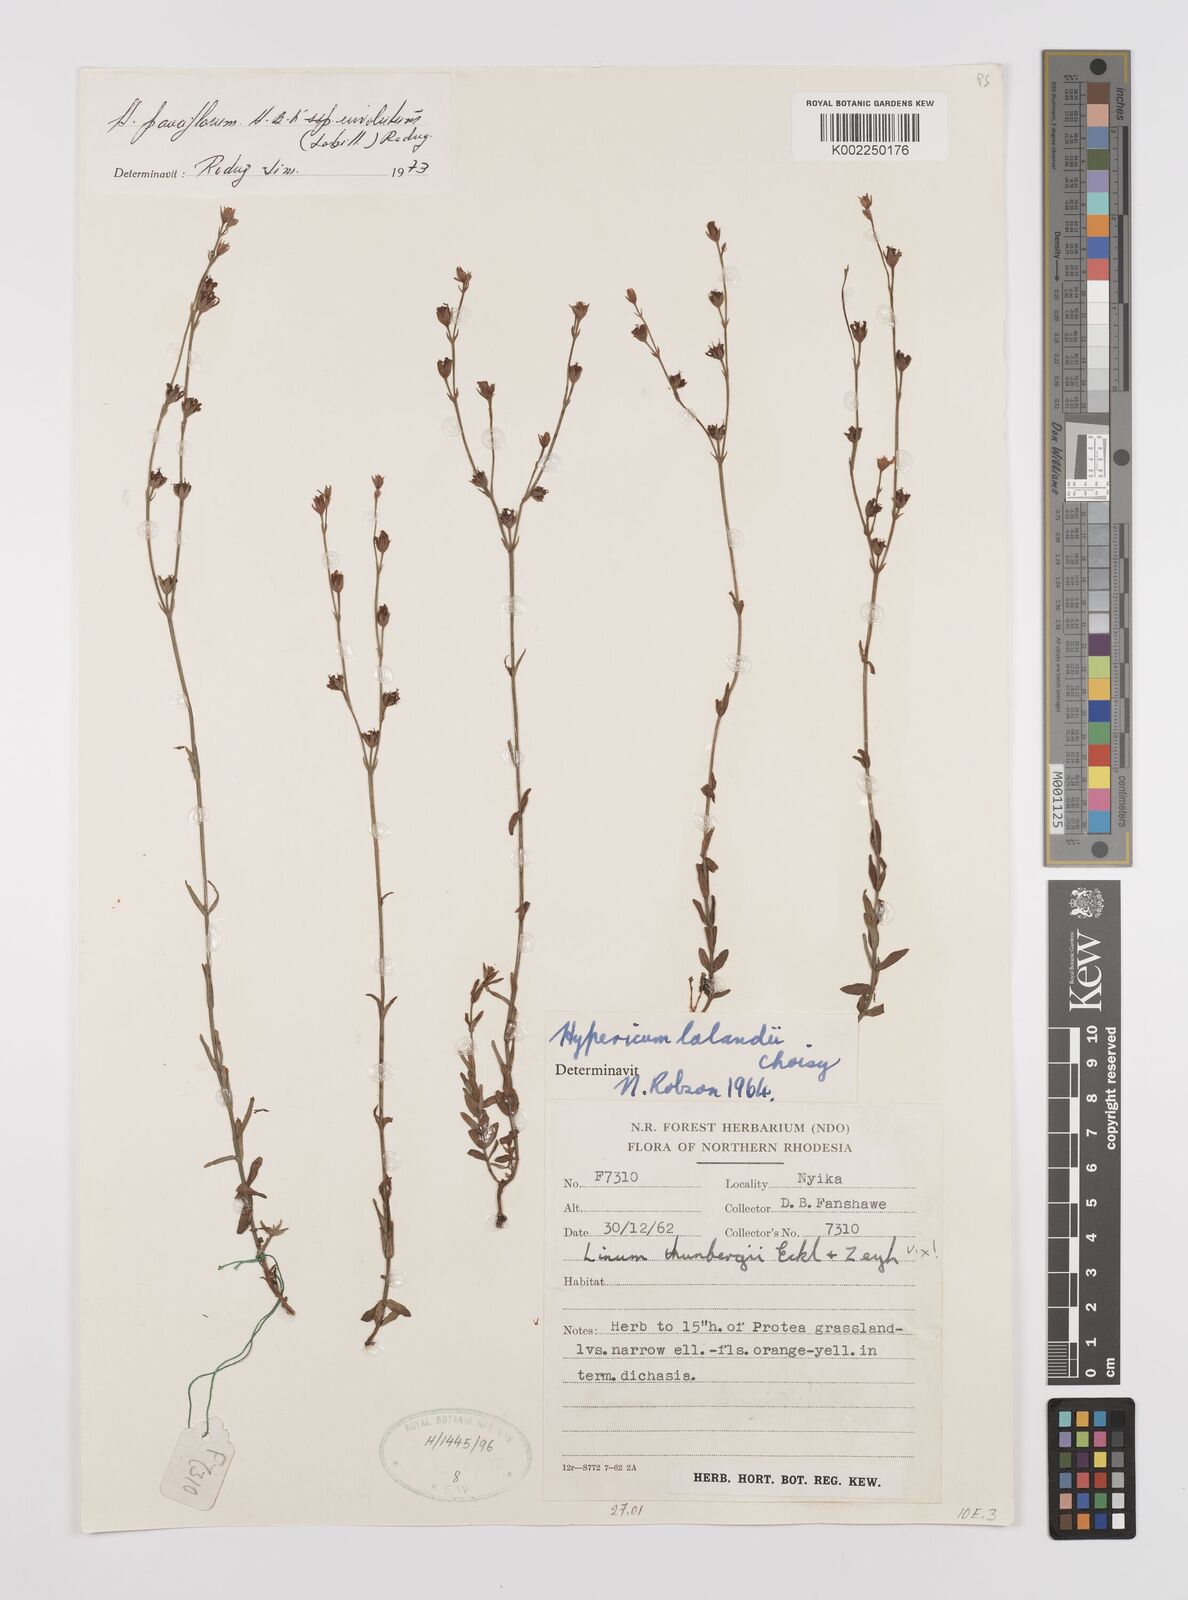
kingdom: Plantae
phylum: Tracheophyta
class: Magnoliopsida
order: Malpighiales
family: Hypericaceae
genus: Hypericum
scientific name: Hypericum lalandii
